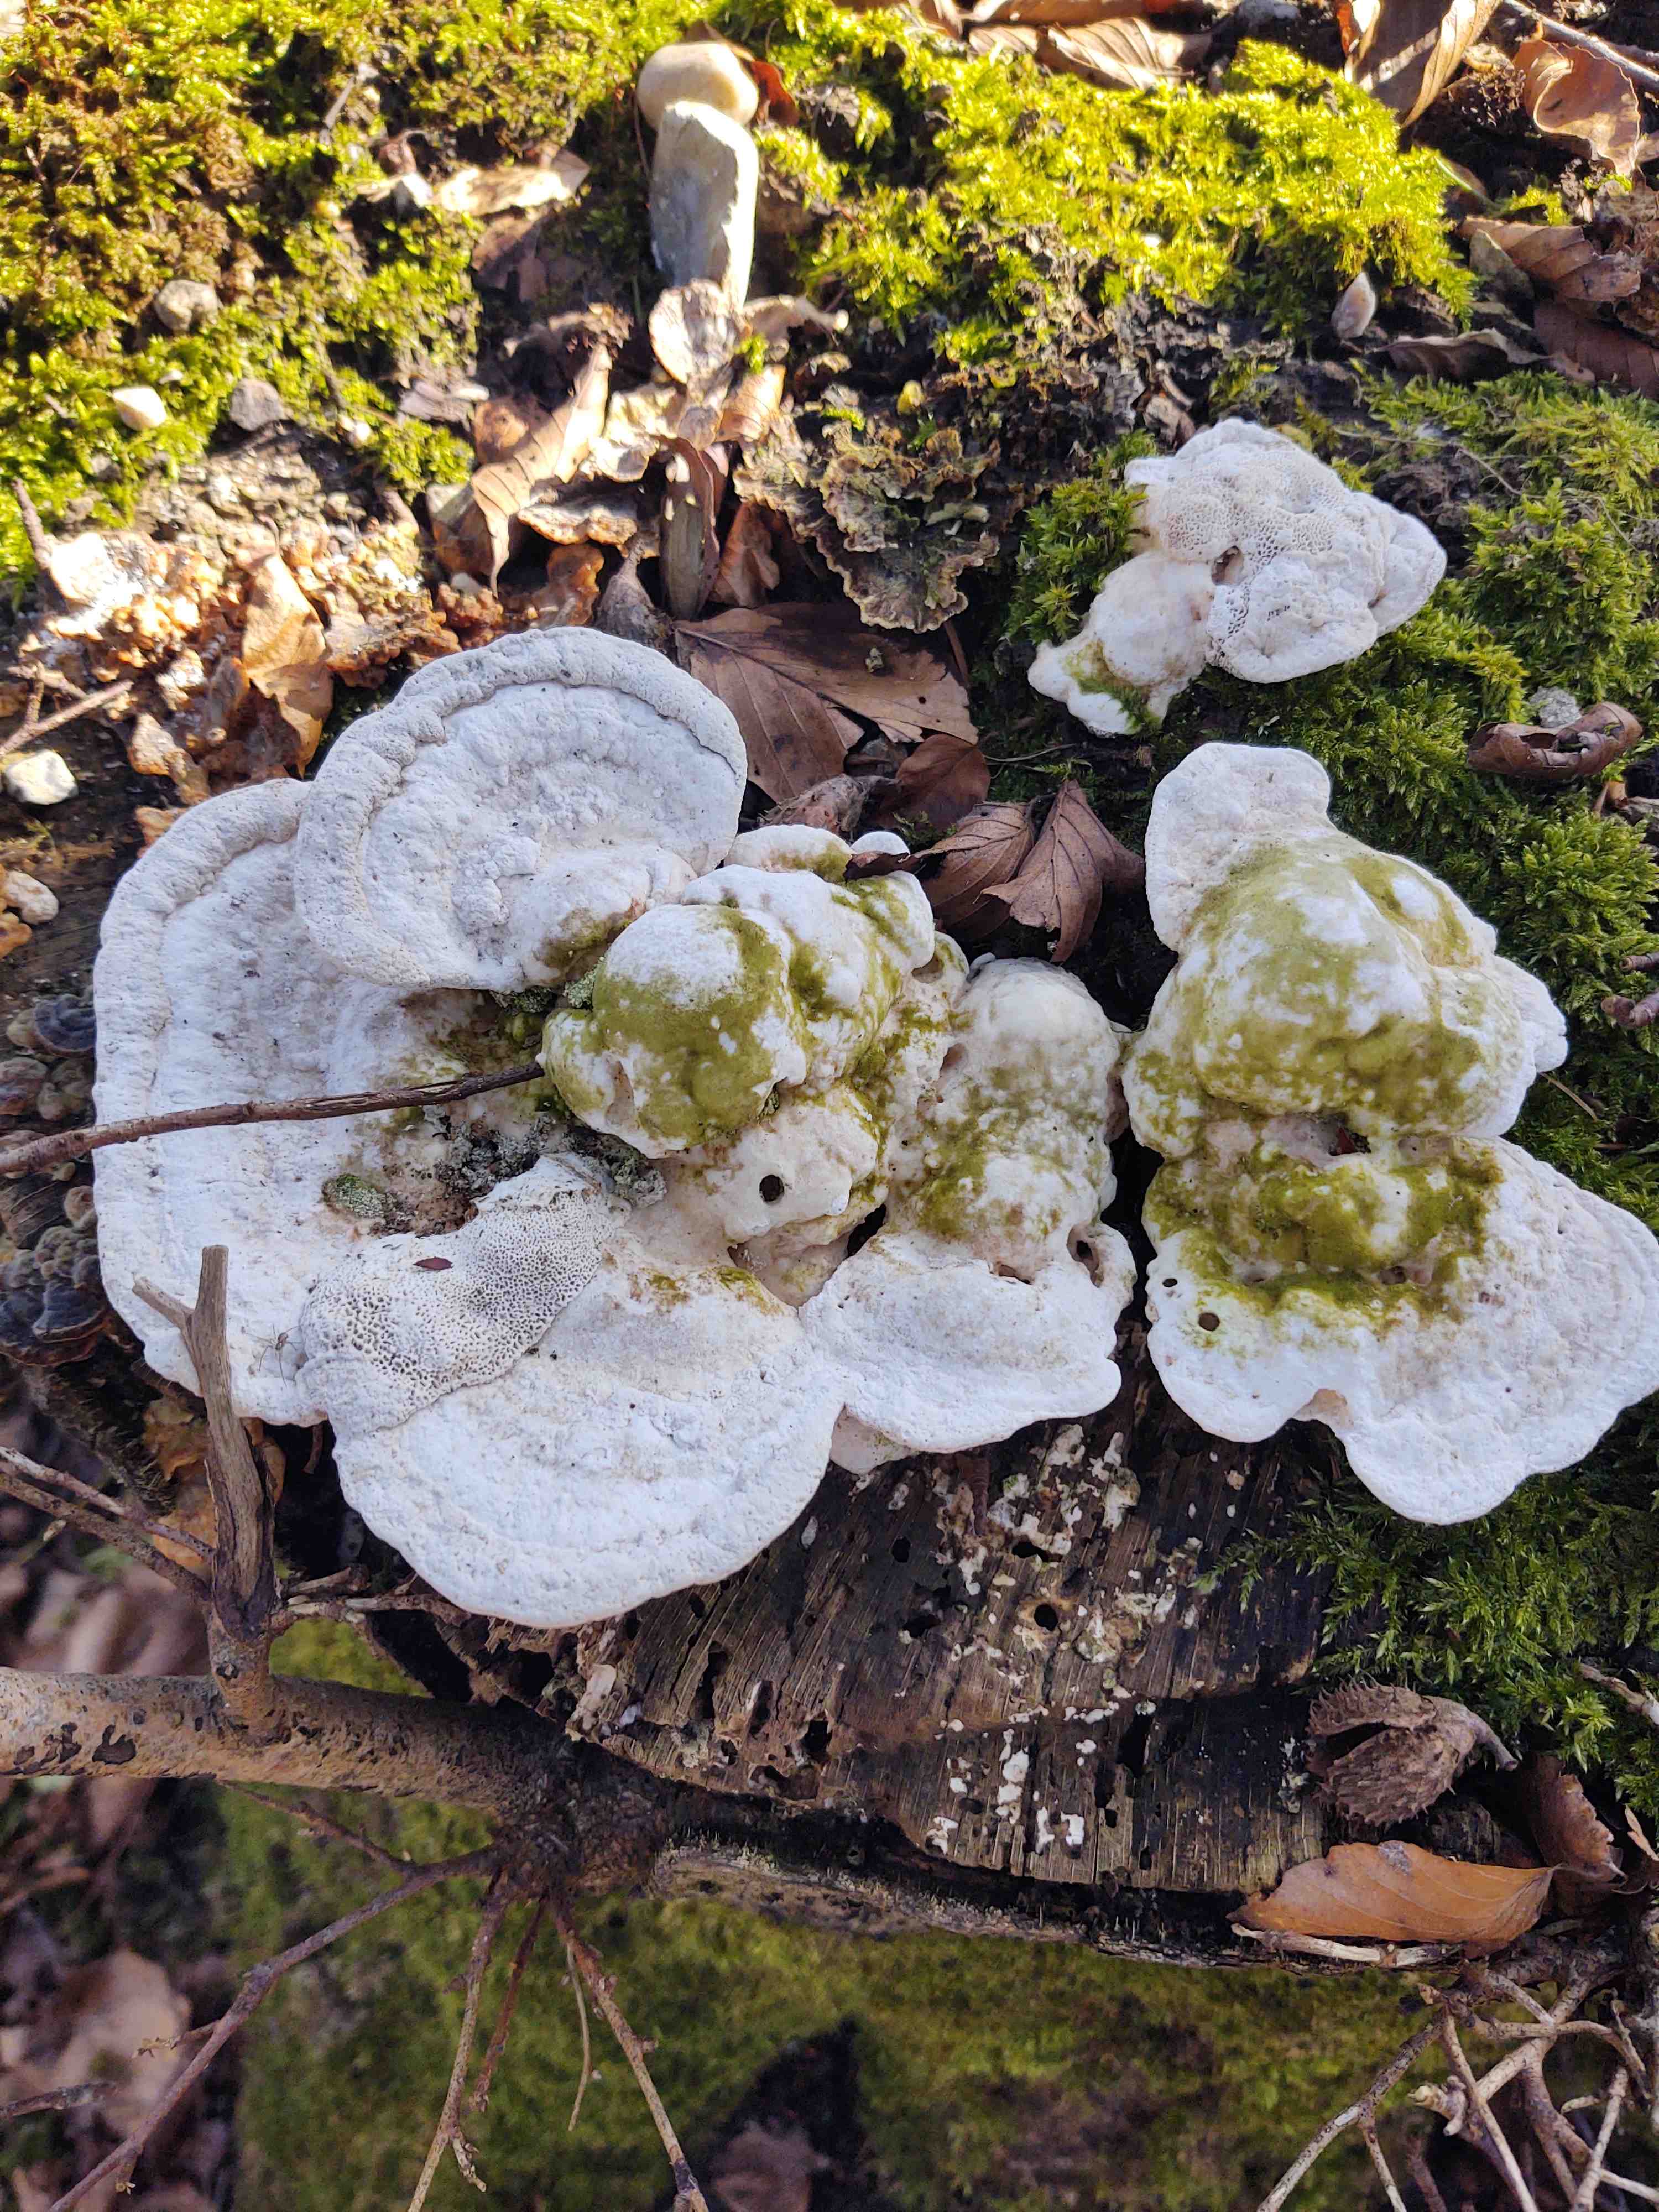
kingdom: Fungi
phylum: Basidiomycota
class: Agaricomycetes
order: Polyporales
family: Polyporaceae
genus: Trametes
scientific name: Trametes gibbosa
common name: puklet læderporesvamp
